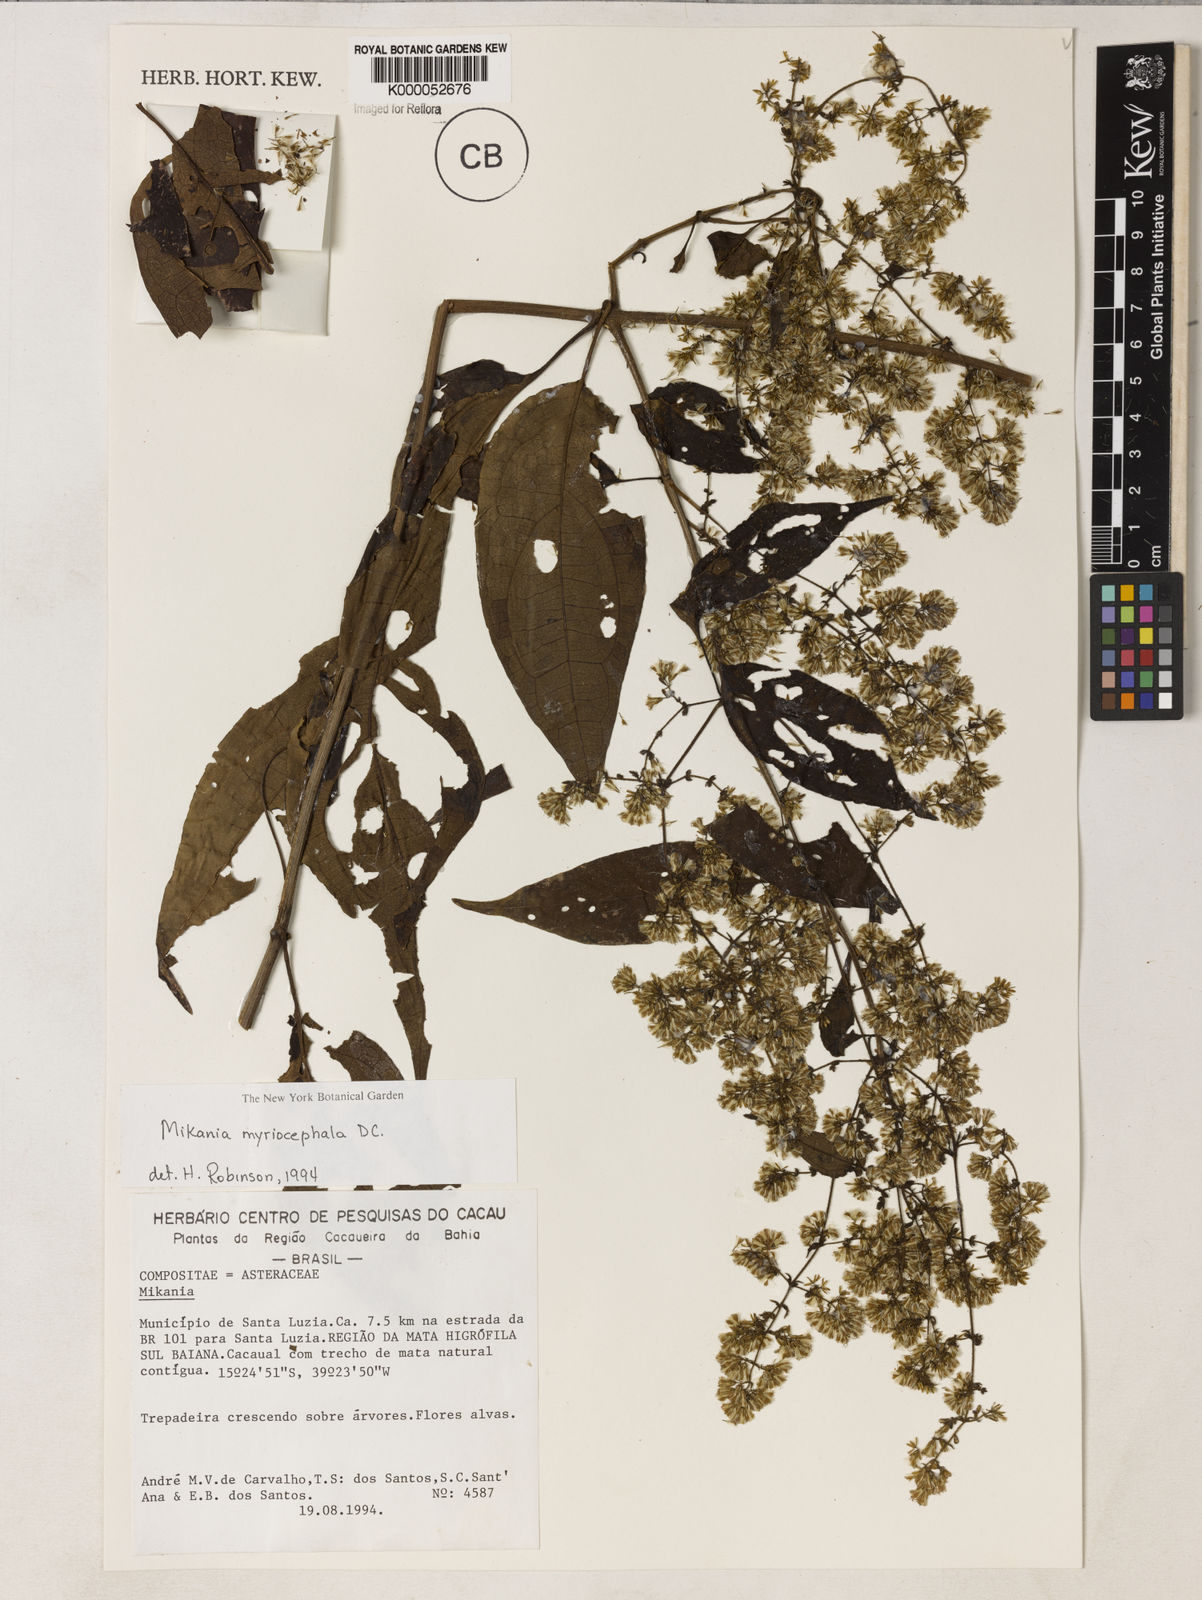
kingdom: Plantae
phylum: Tracheophyta
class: Magnoliopsida
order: Asterales
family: Asteraceae
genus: Mikania
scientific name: Mikania myriocephala
